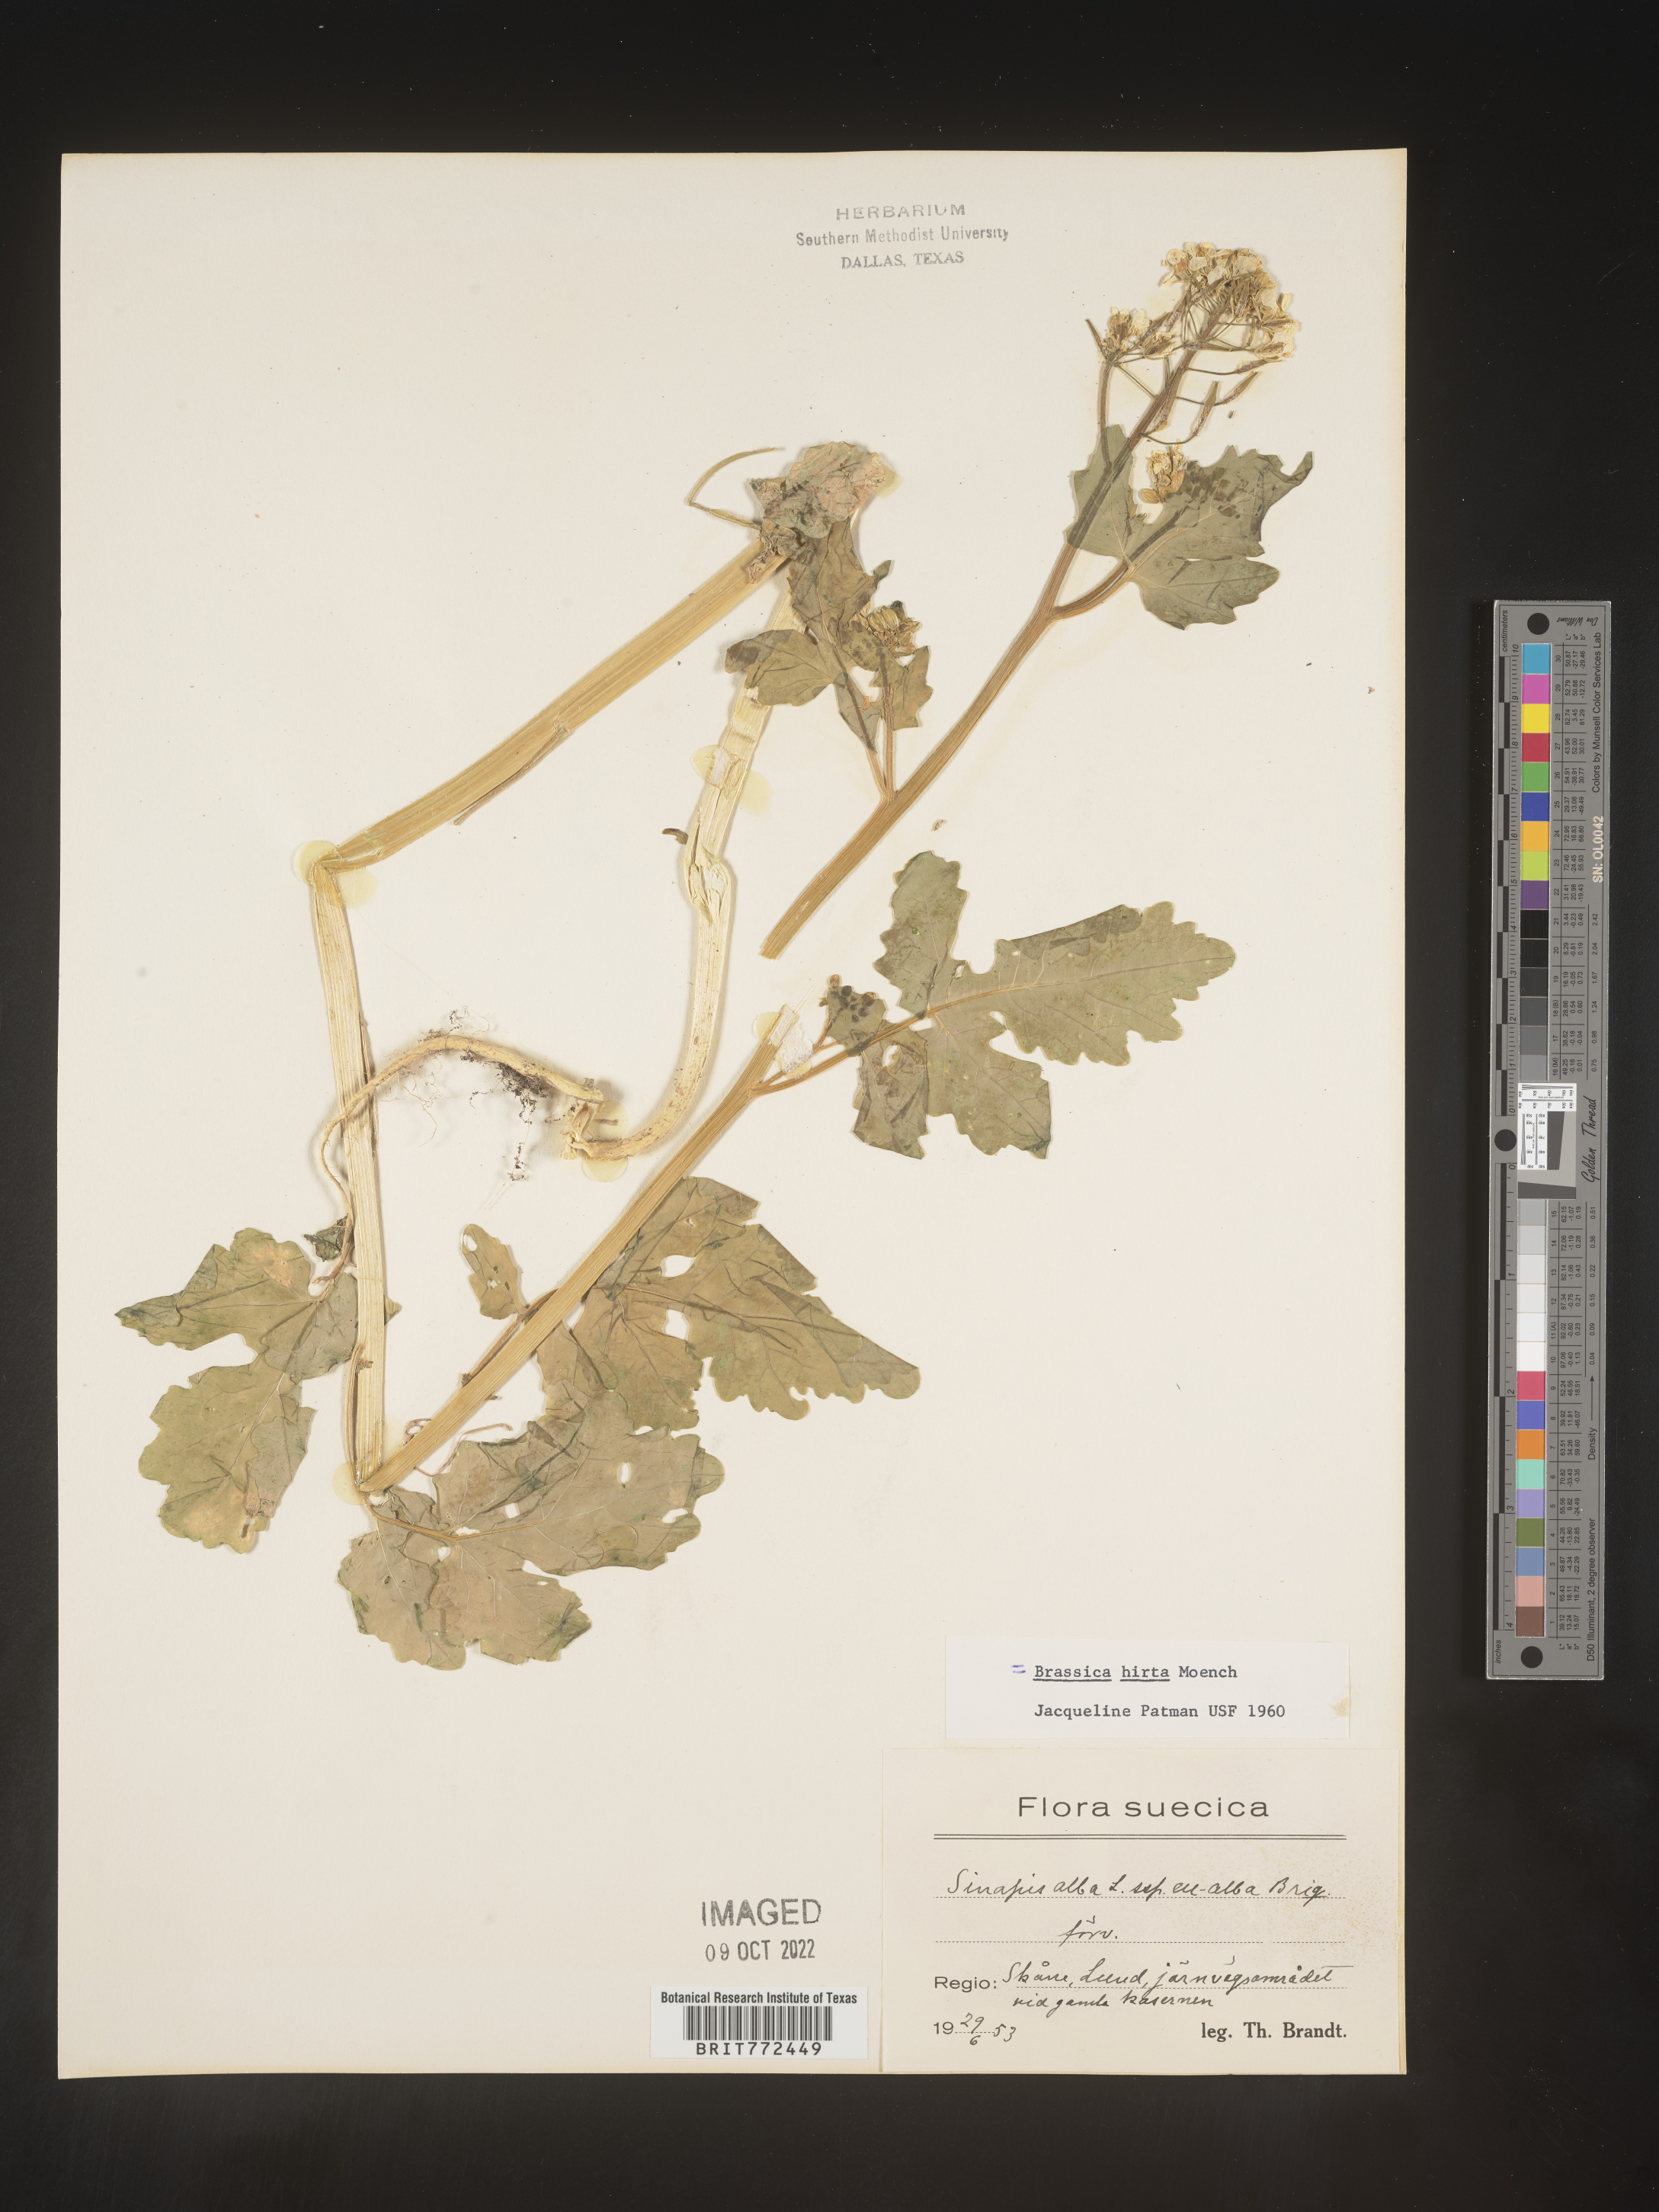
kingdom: Plantae
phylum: Tracheophyta
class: Magnoliopsida
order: Brassicales
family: Brassicaceae
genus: Brassica
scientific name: Brassica
